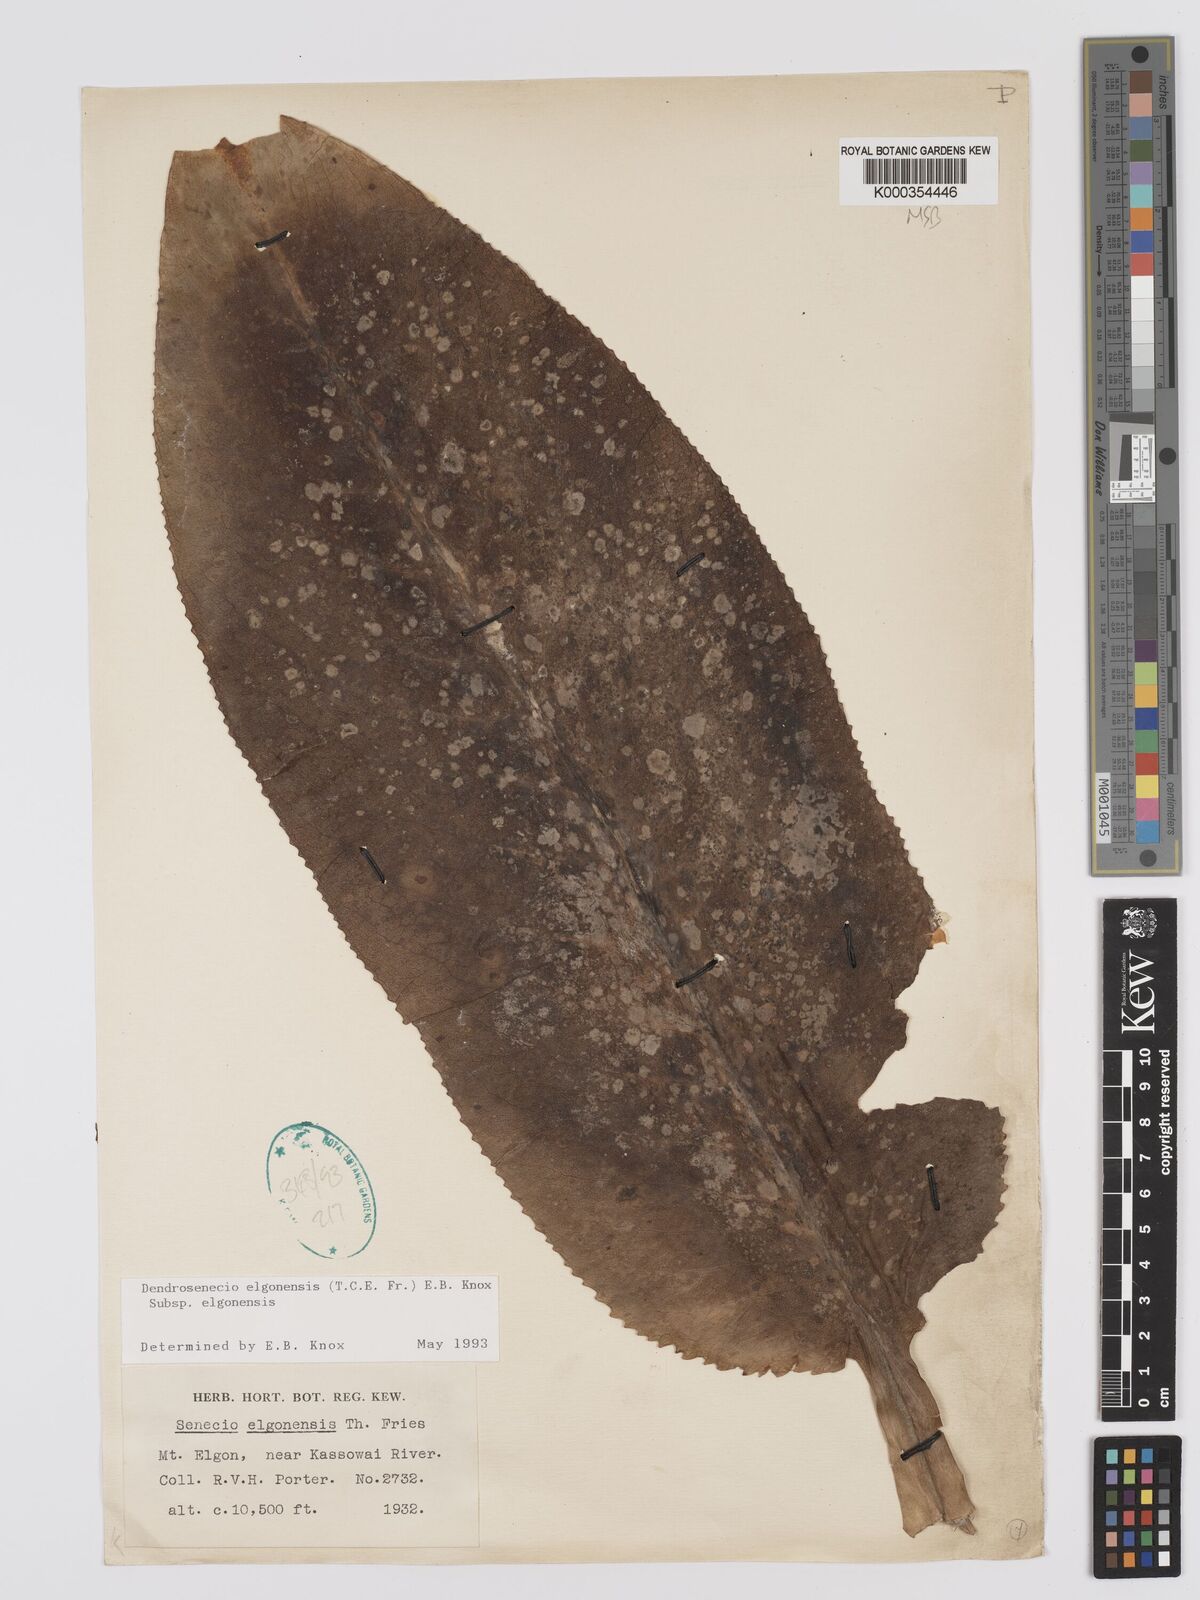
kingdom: Plantae
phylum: Tracheophyta
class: Magnoliopsida
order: Asterales
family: Asteraceae
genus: Dendrosenecio
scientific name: Dendrosenecio elgonensis
